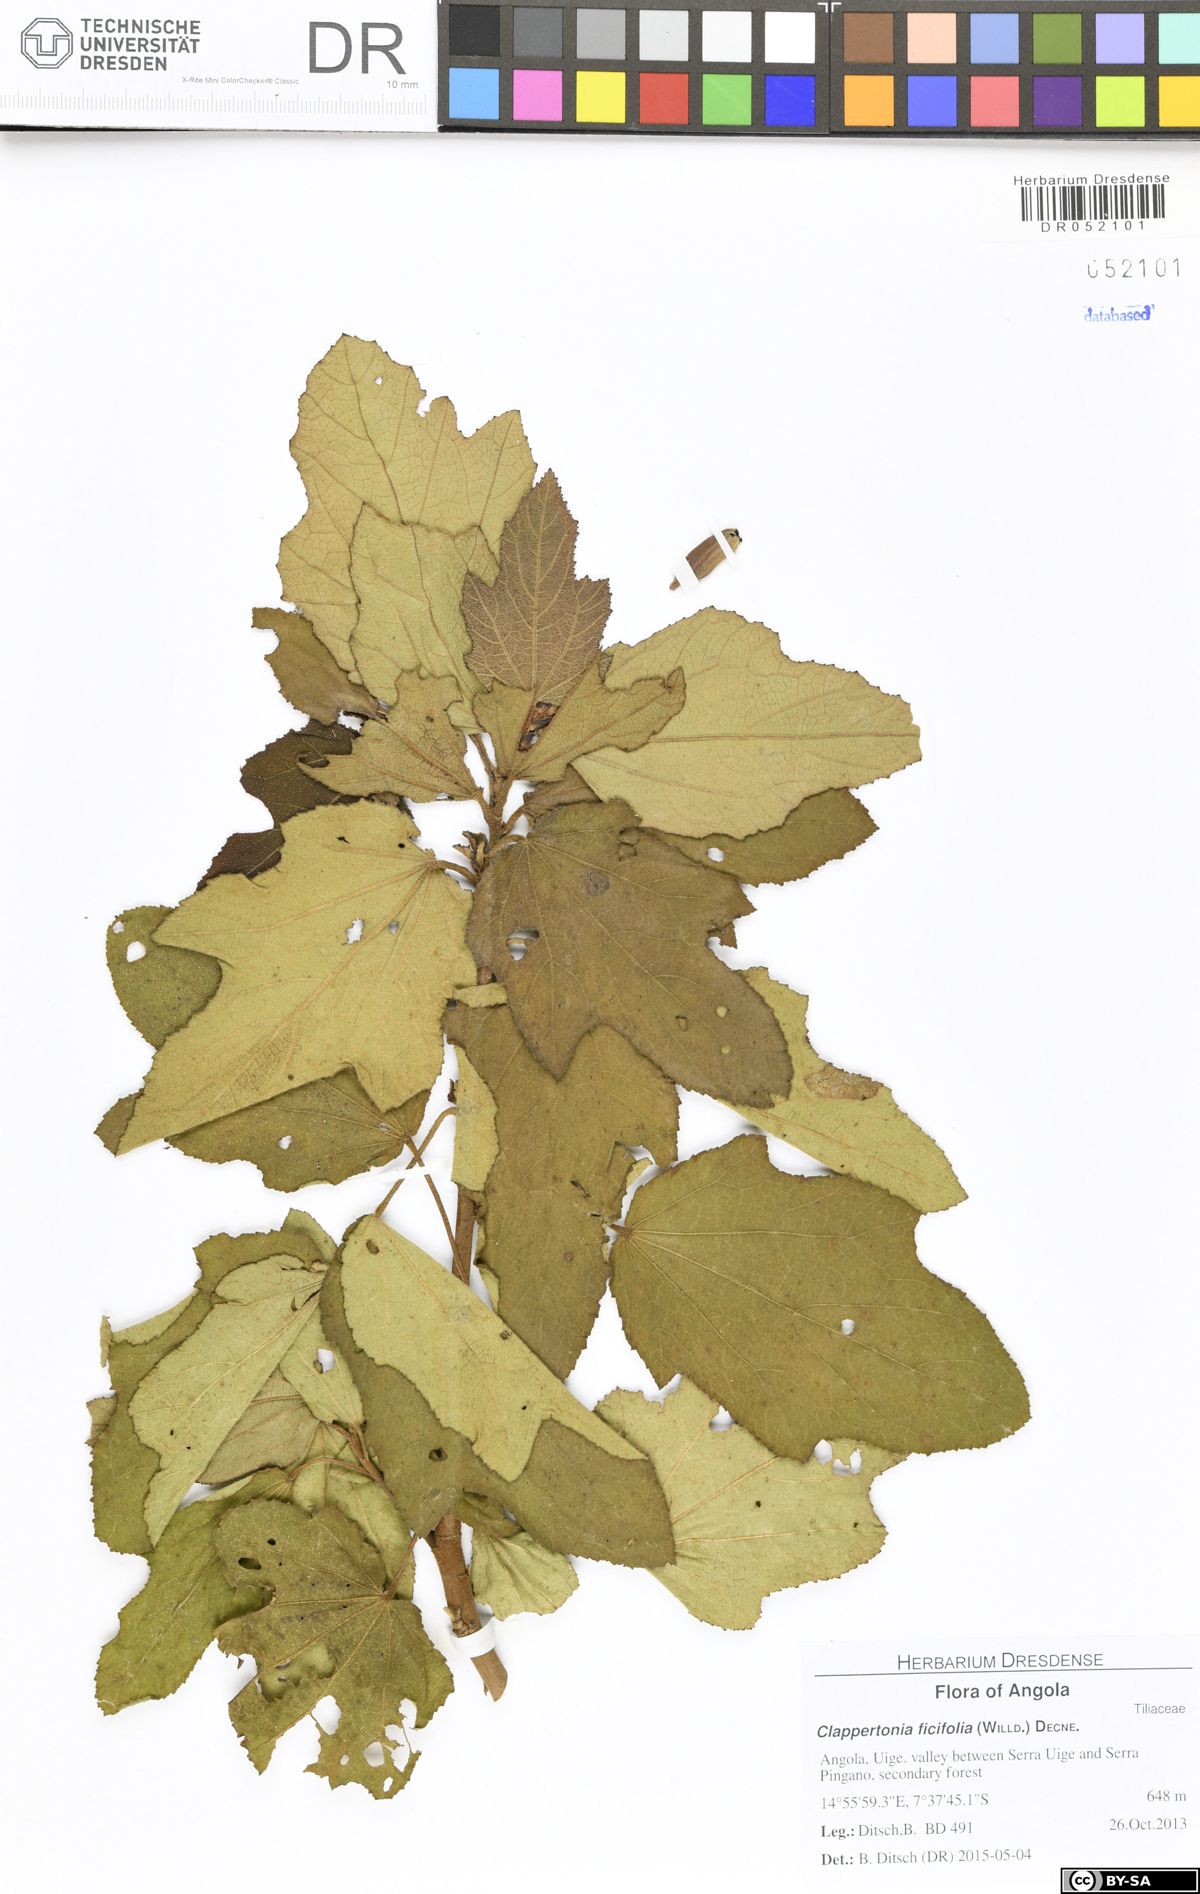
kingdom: Plantae
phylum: Tracheophyta
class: Magnoliopsida
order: Malvales
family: Malvaceae
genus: Clappertonia
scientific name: Clappertonia ficifolia
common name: Bolo-bolo
